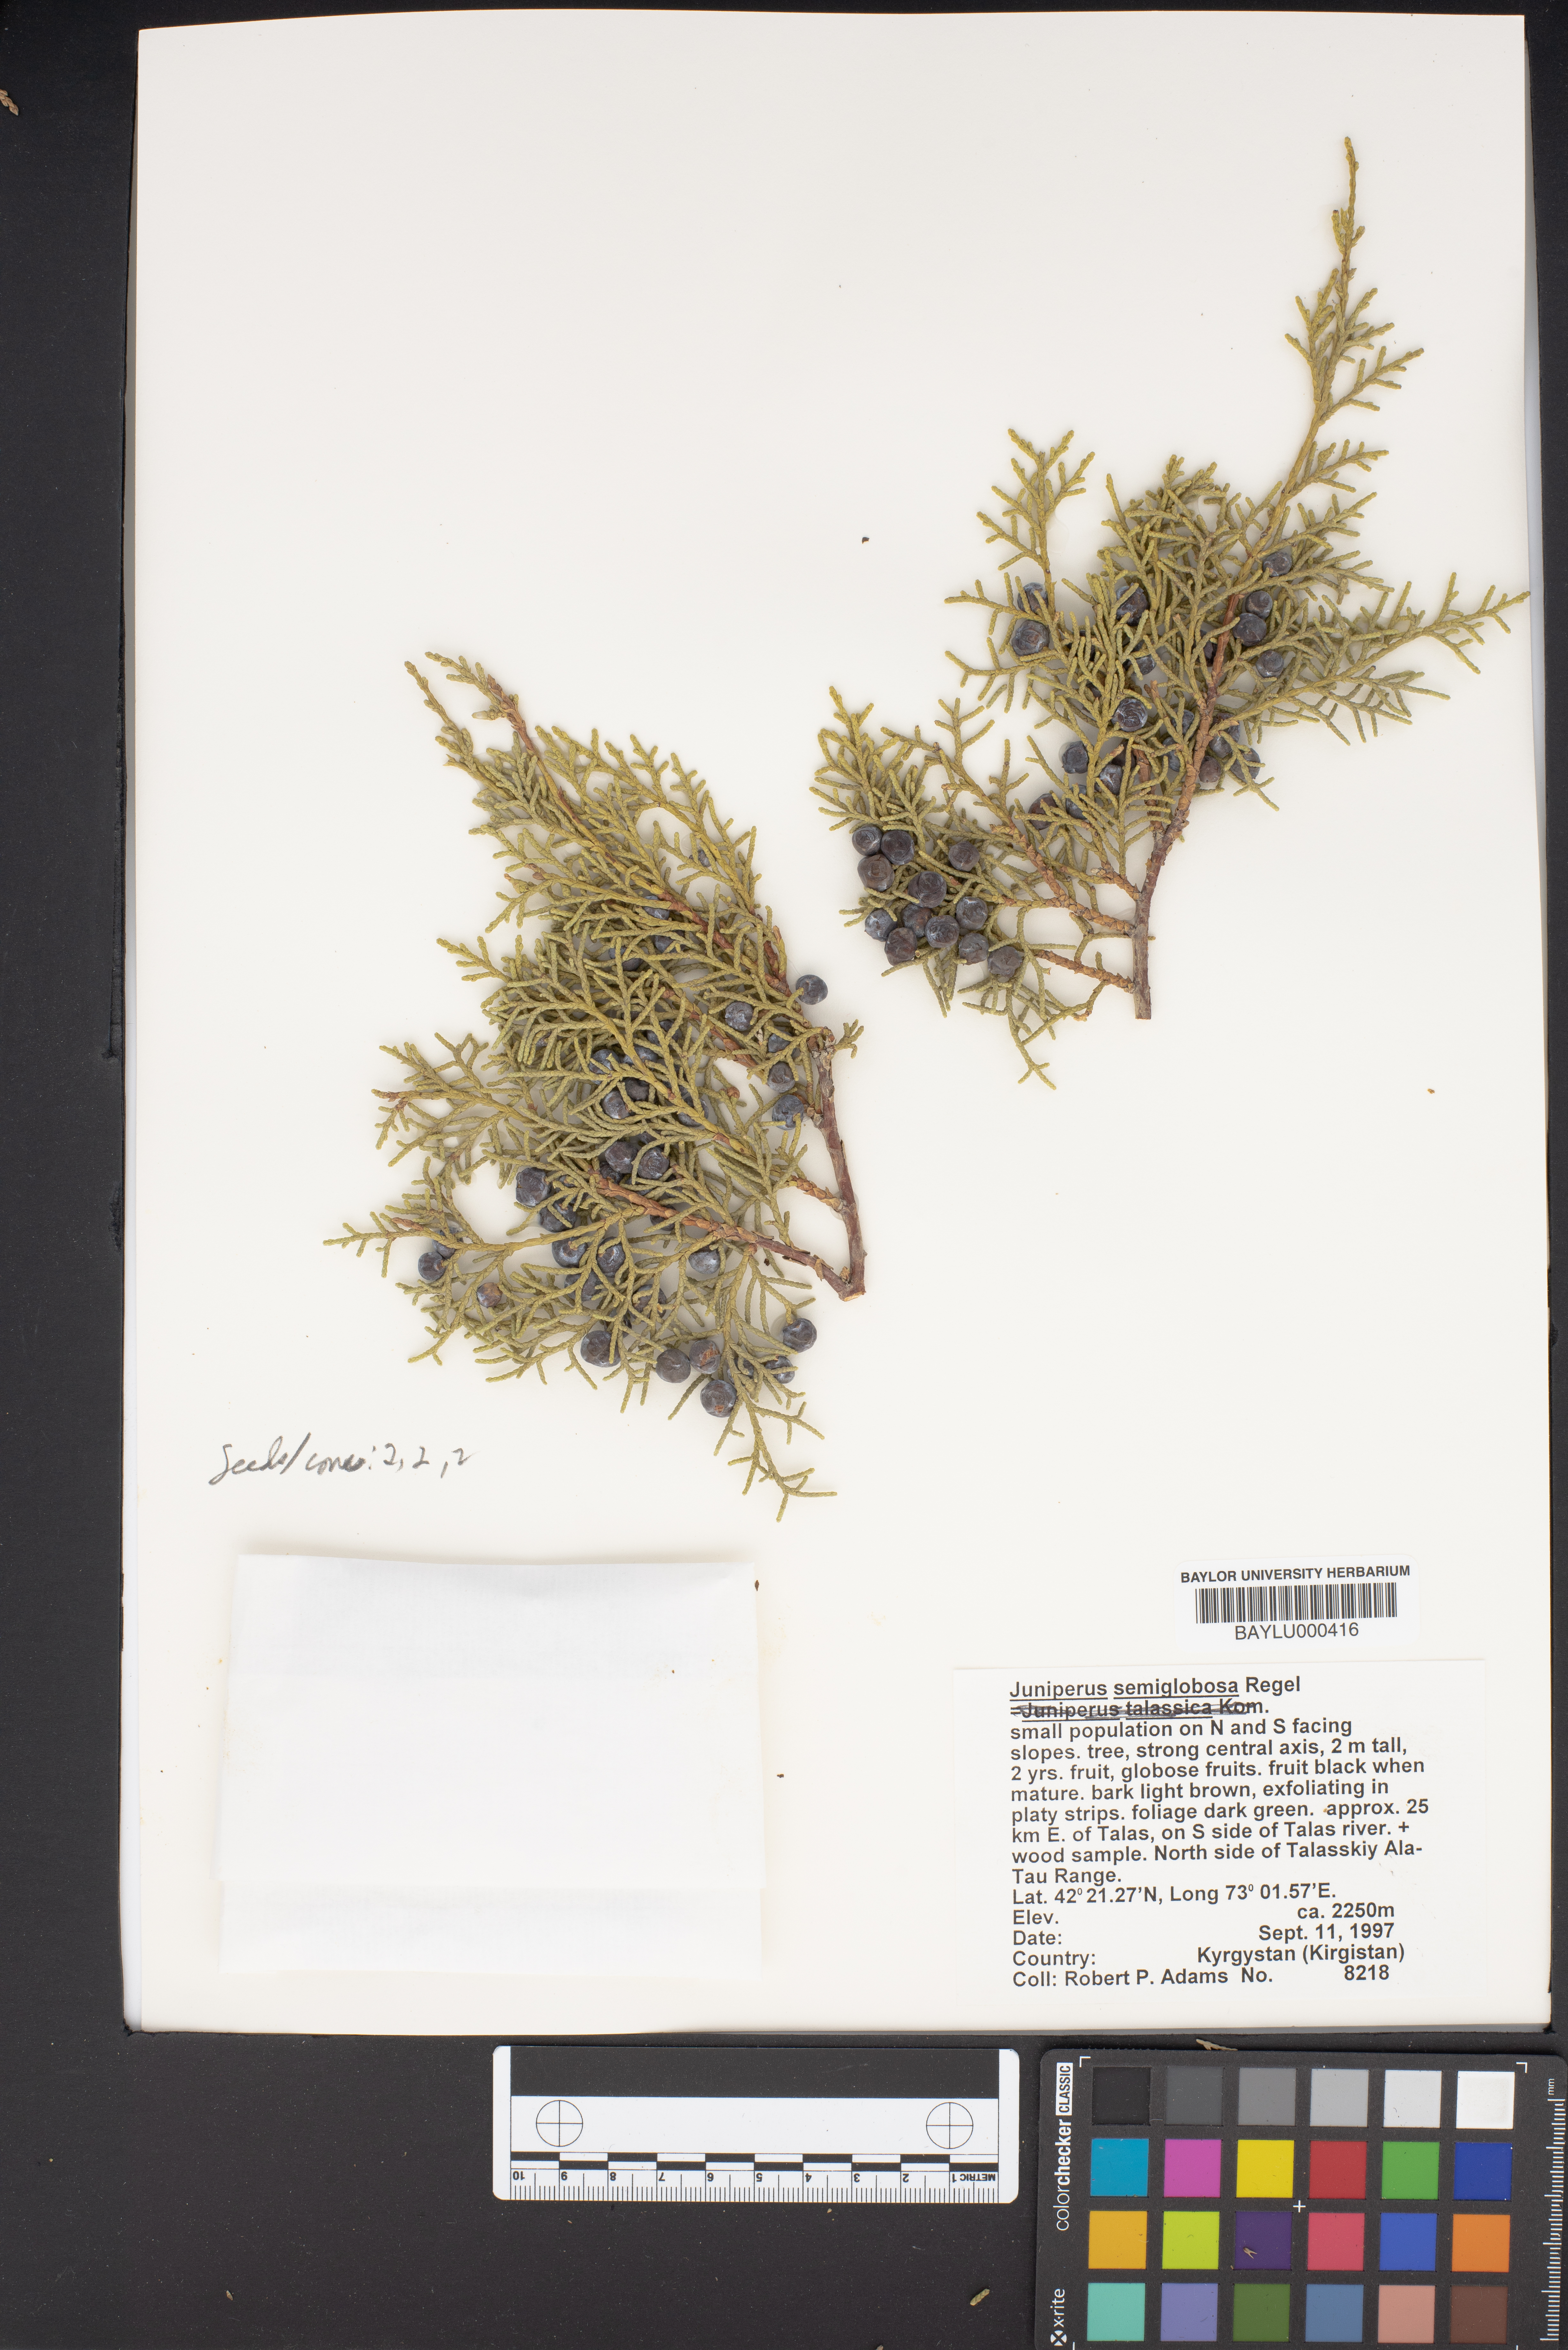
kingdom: Plantae
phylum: Tracheophyta
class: Pinopsida
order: Pinales
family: Cupressaceae
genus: Juniperus
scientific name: Juniperus semiglobosa
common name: Pencil cedar
